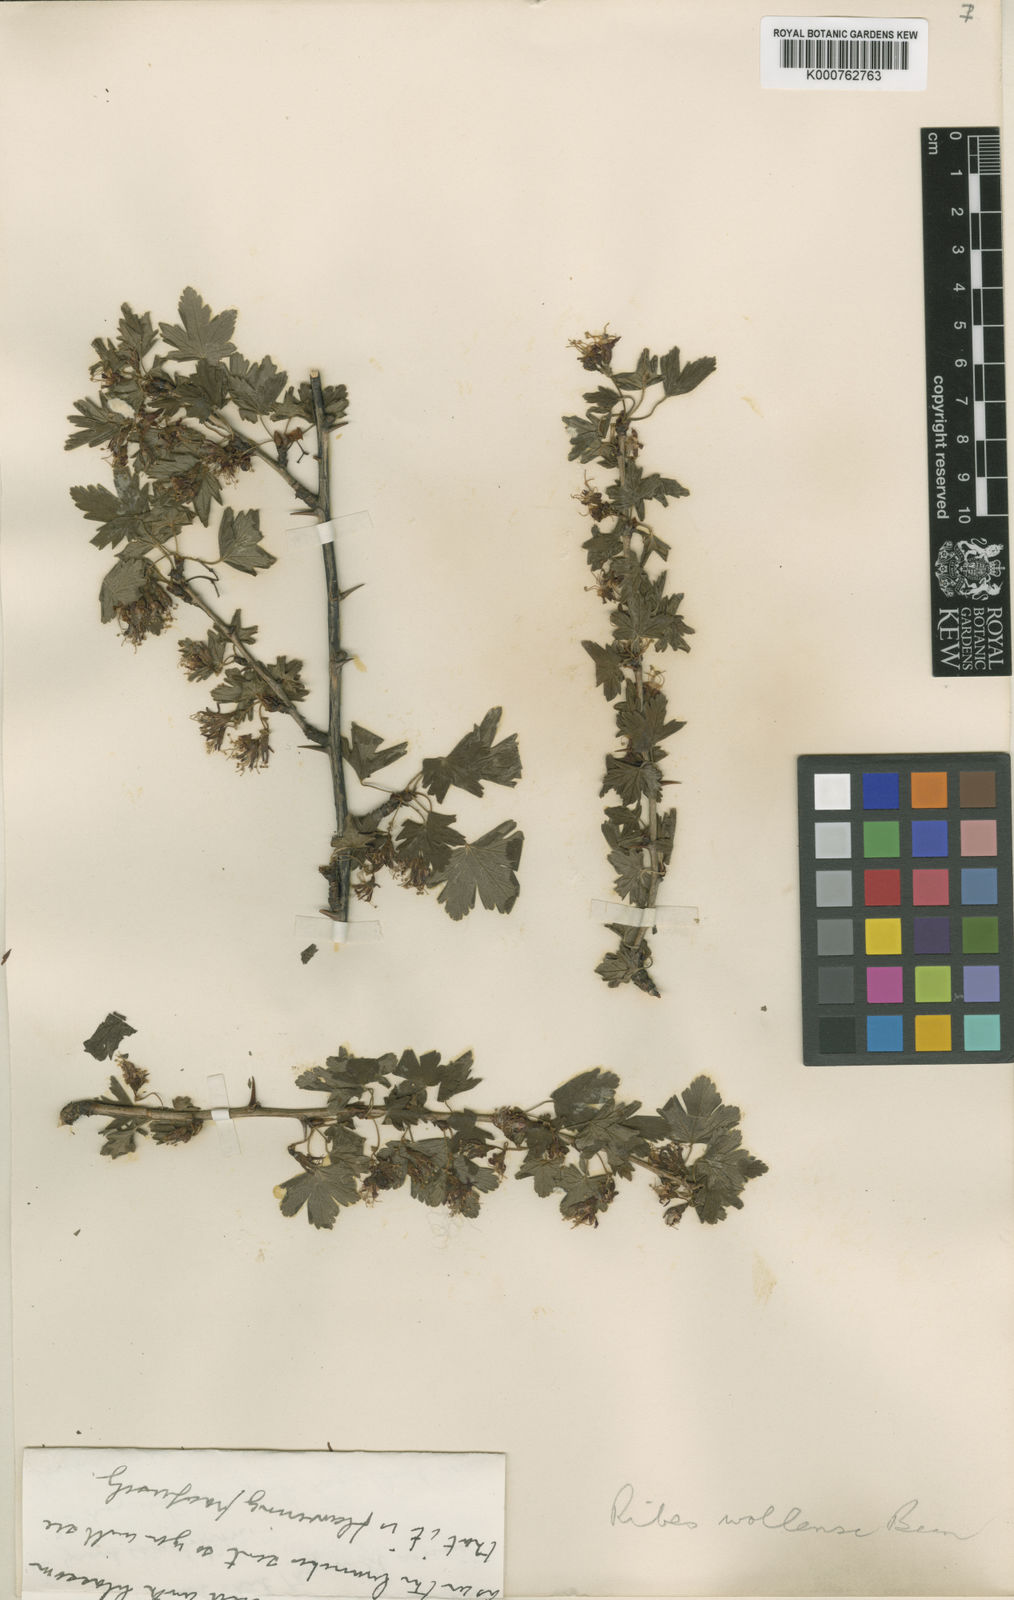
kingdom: Plantae
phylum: Tracheophyta
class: Magnoliopsida
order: Saxifragales
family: Grossulariaceae
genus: Ribes
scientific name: Ribes divaricatum
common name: Wild black gooseberry
